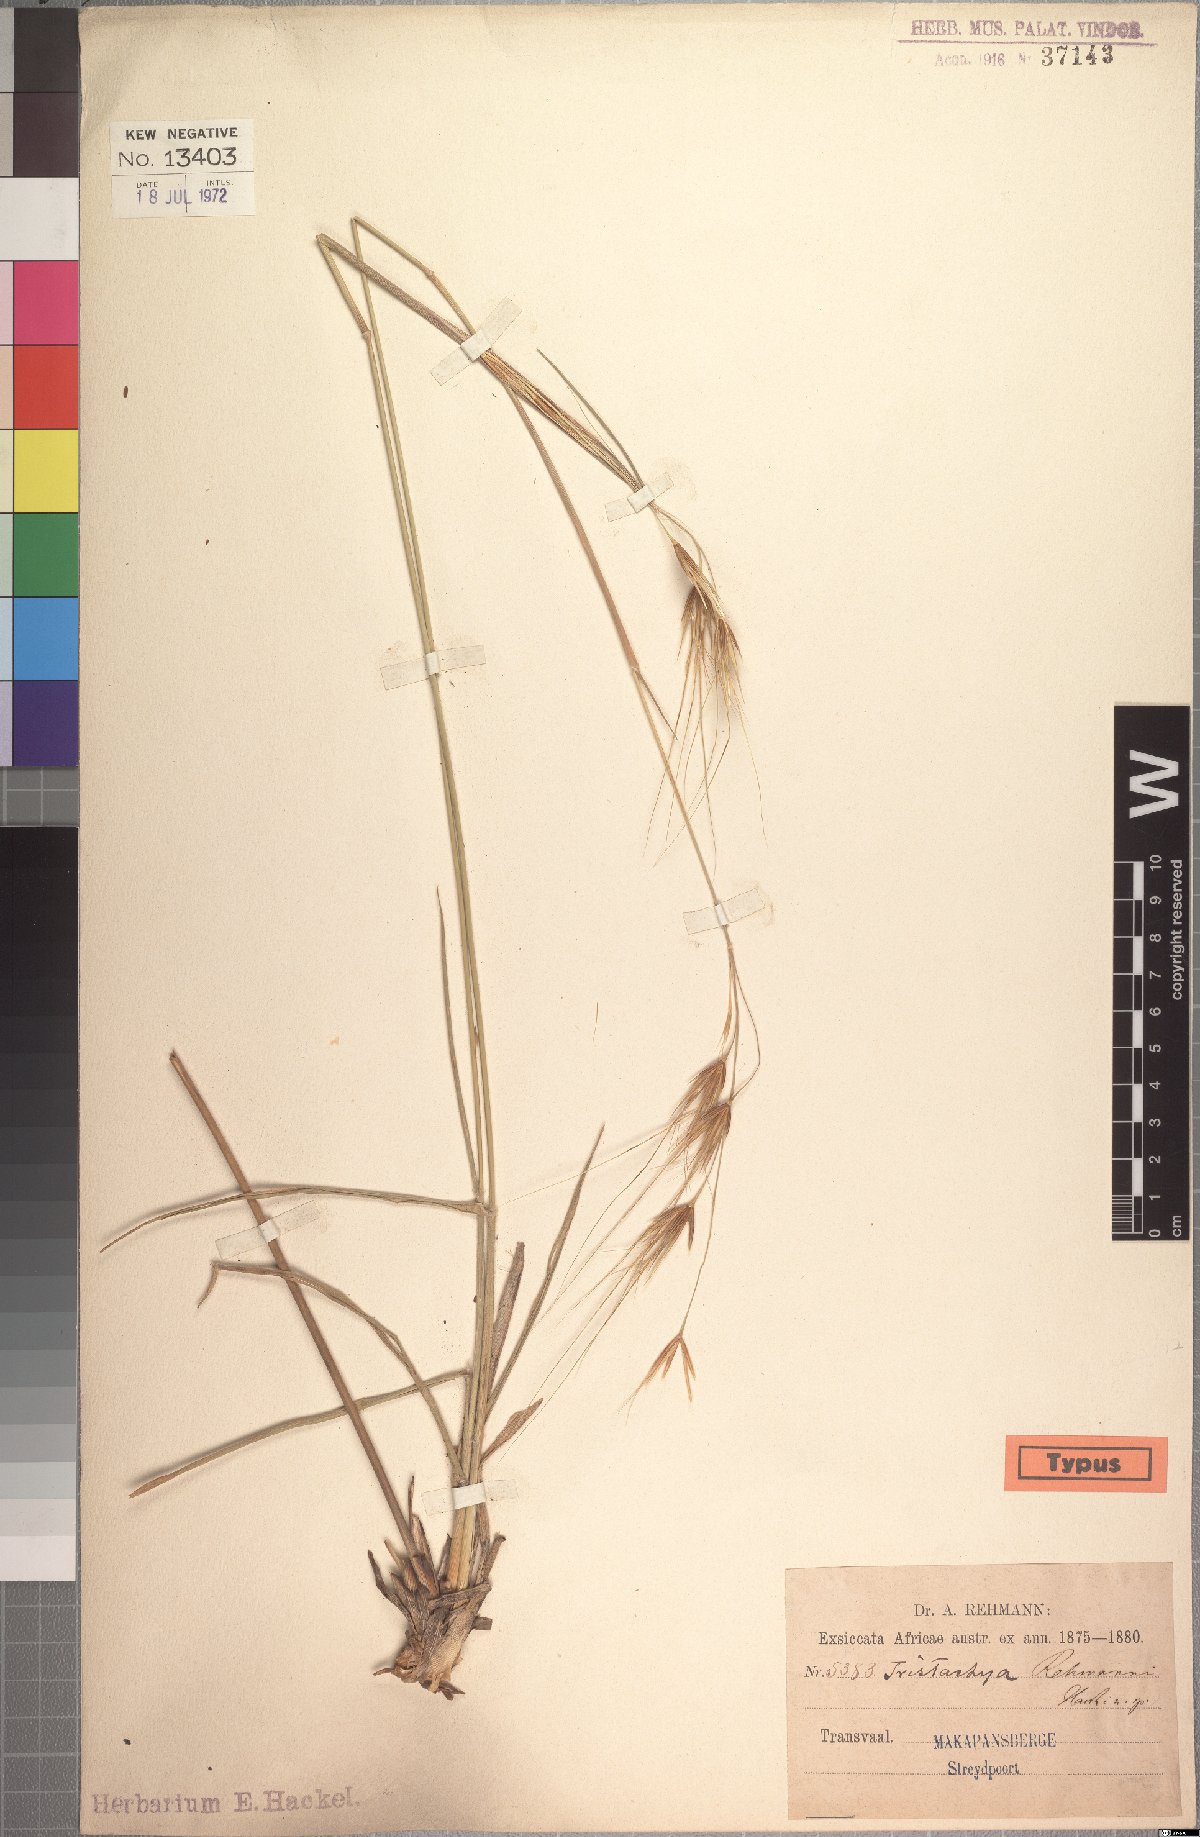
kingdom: Plantae
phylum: Tracheophyta
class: Liliopsida
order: Poales
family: Poaceae
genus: Tristachya
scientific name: Tristachya rehmannii
